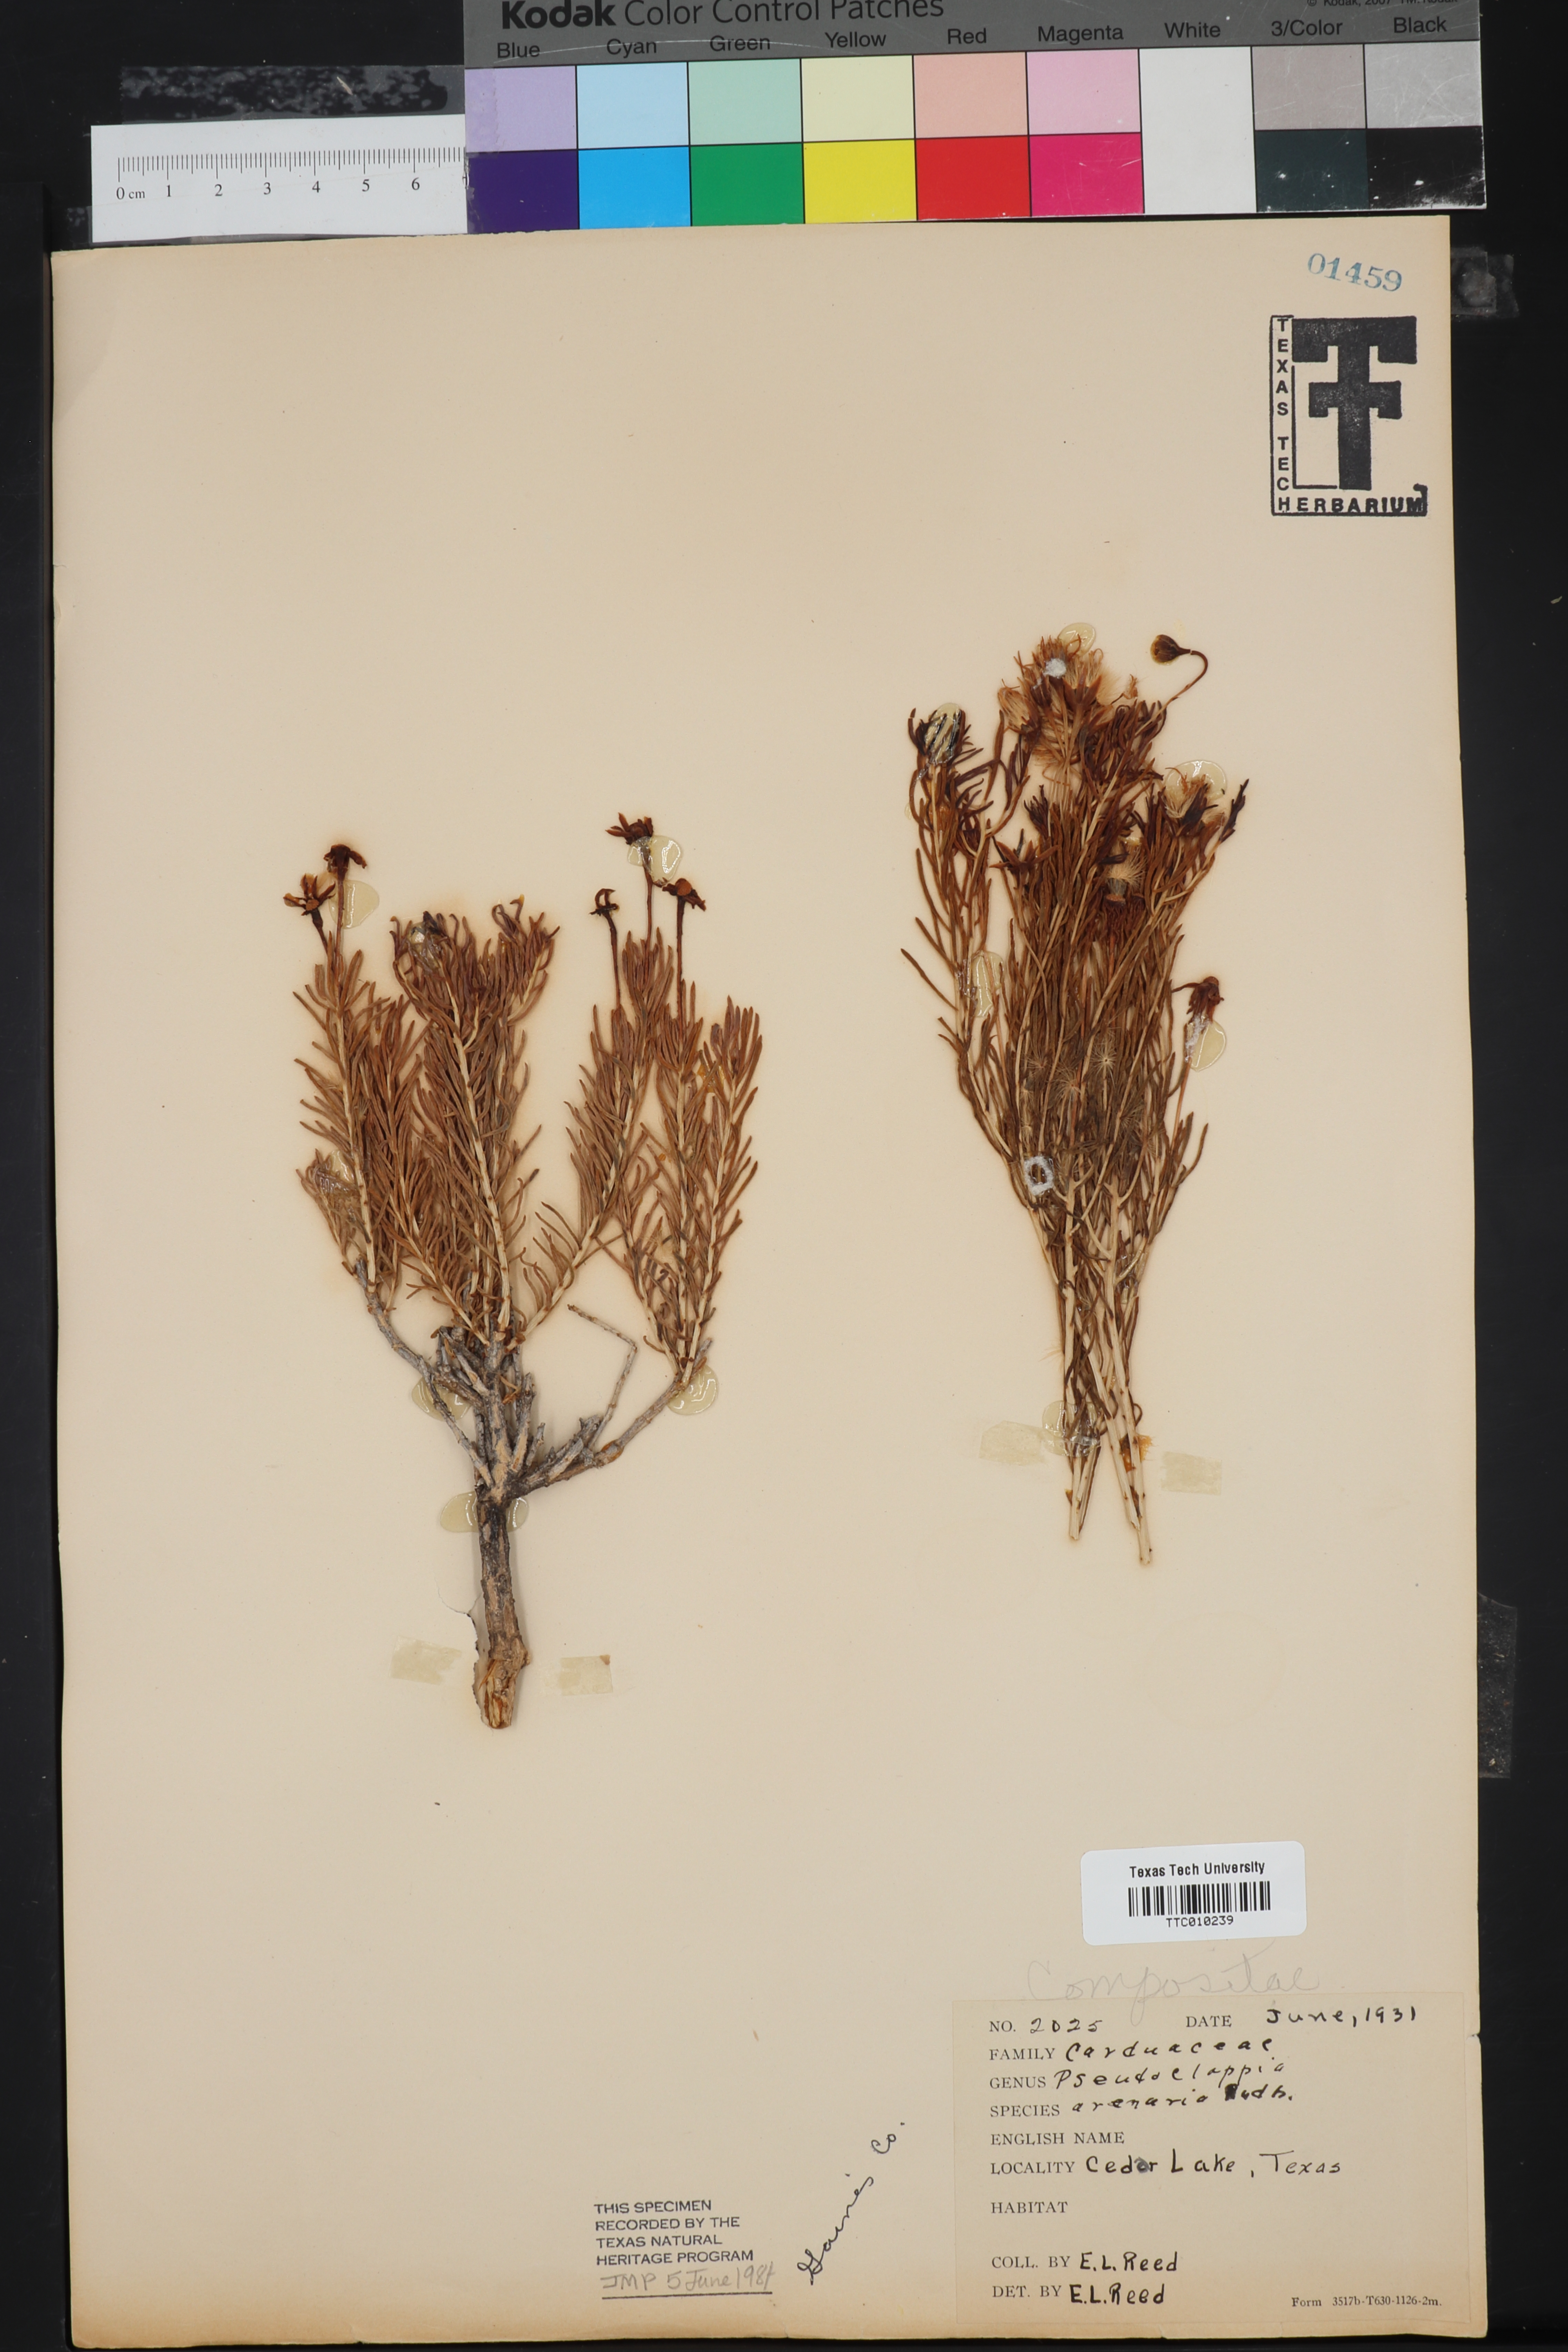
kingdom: Plantae
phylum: Tracheophyta
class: Magnoliopsida
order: Asterales
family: Asteraceae
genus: Pseudoclappia
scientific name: Pseudoclappia arenaria
